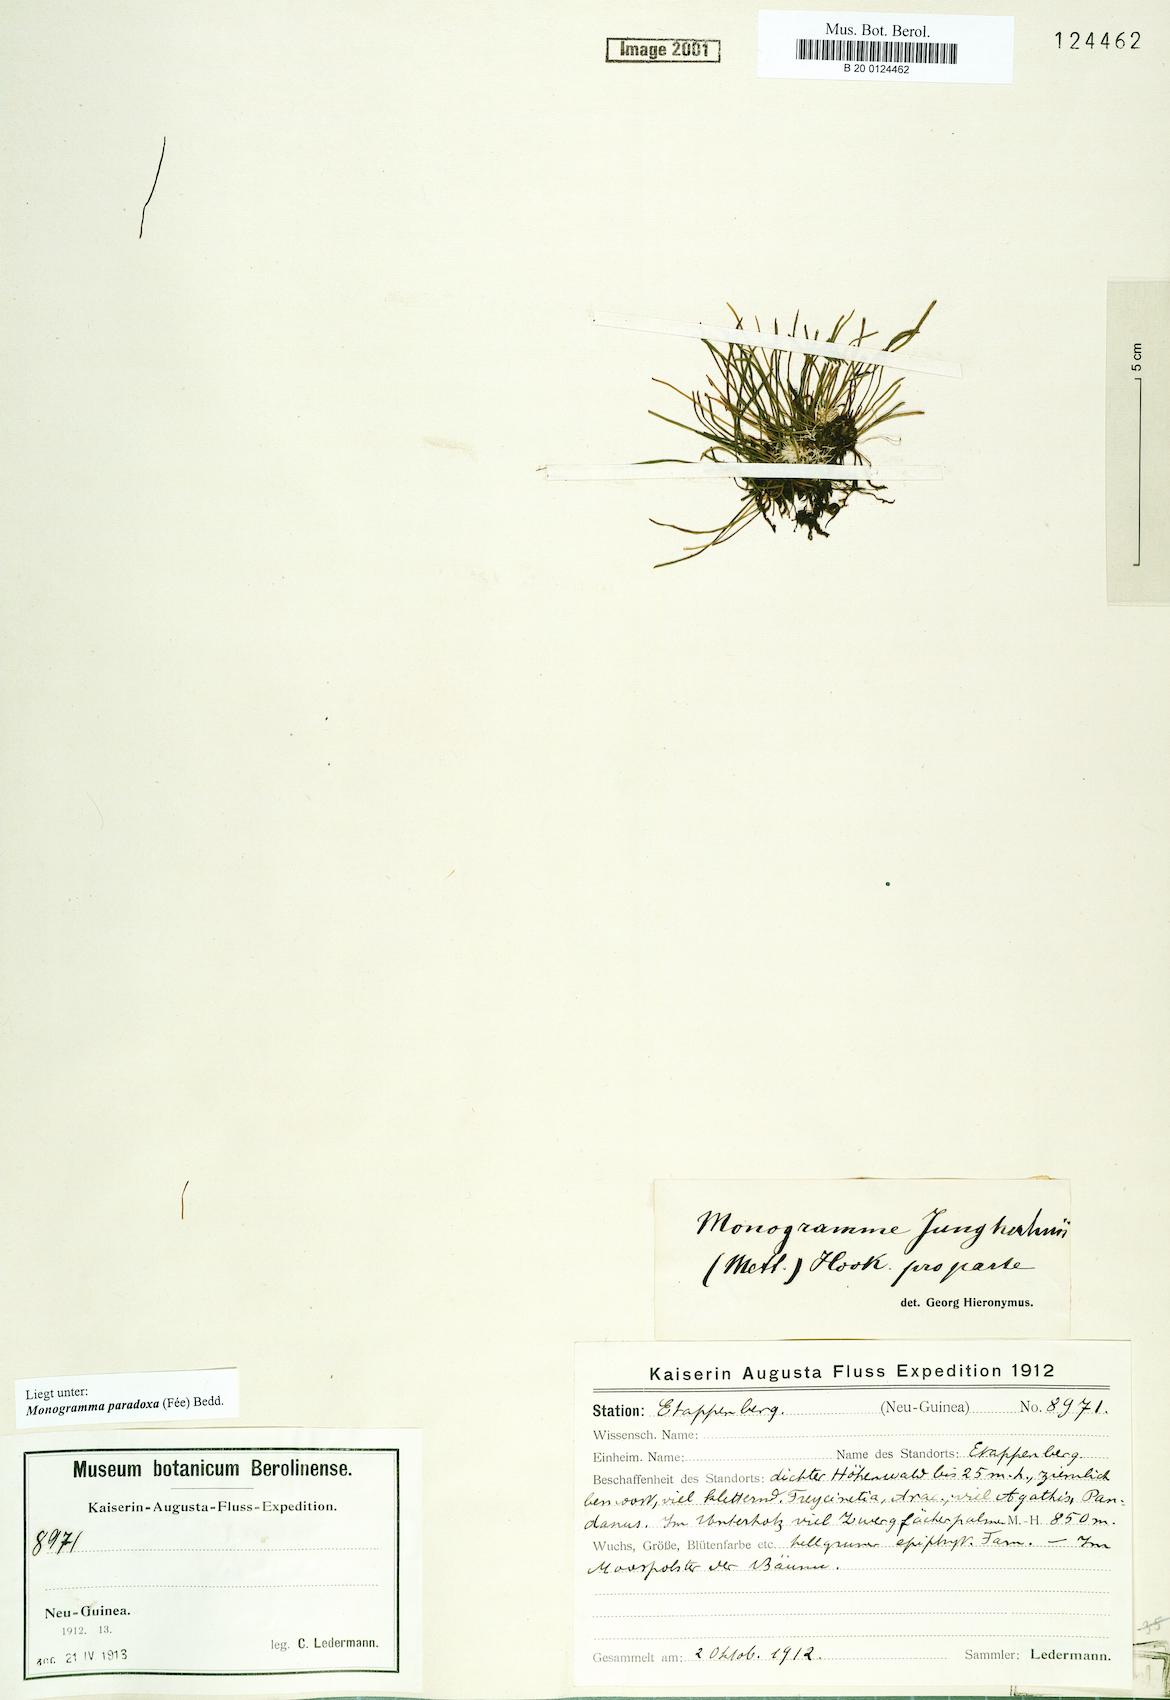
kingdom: Plantae
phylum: Tracheophyta
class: Polypodiopsida
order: Polypodiales
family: Pteridaceae
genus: Vaginularia
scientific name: Vaginularia paradoxa
